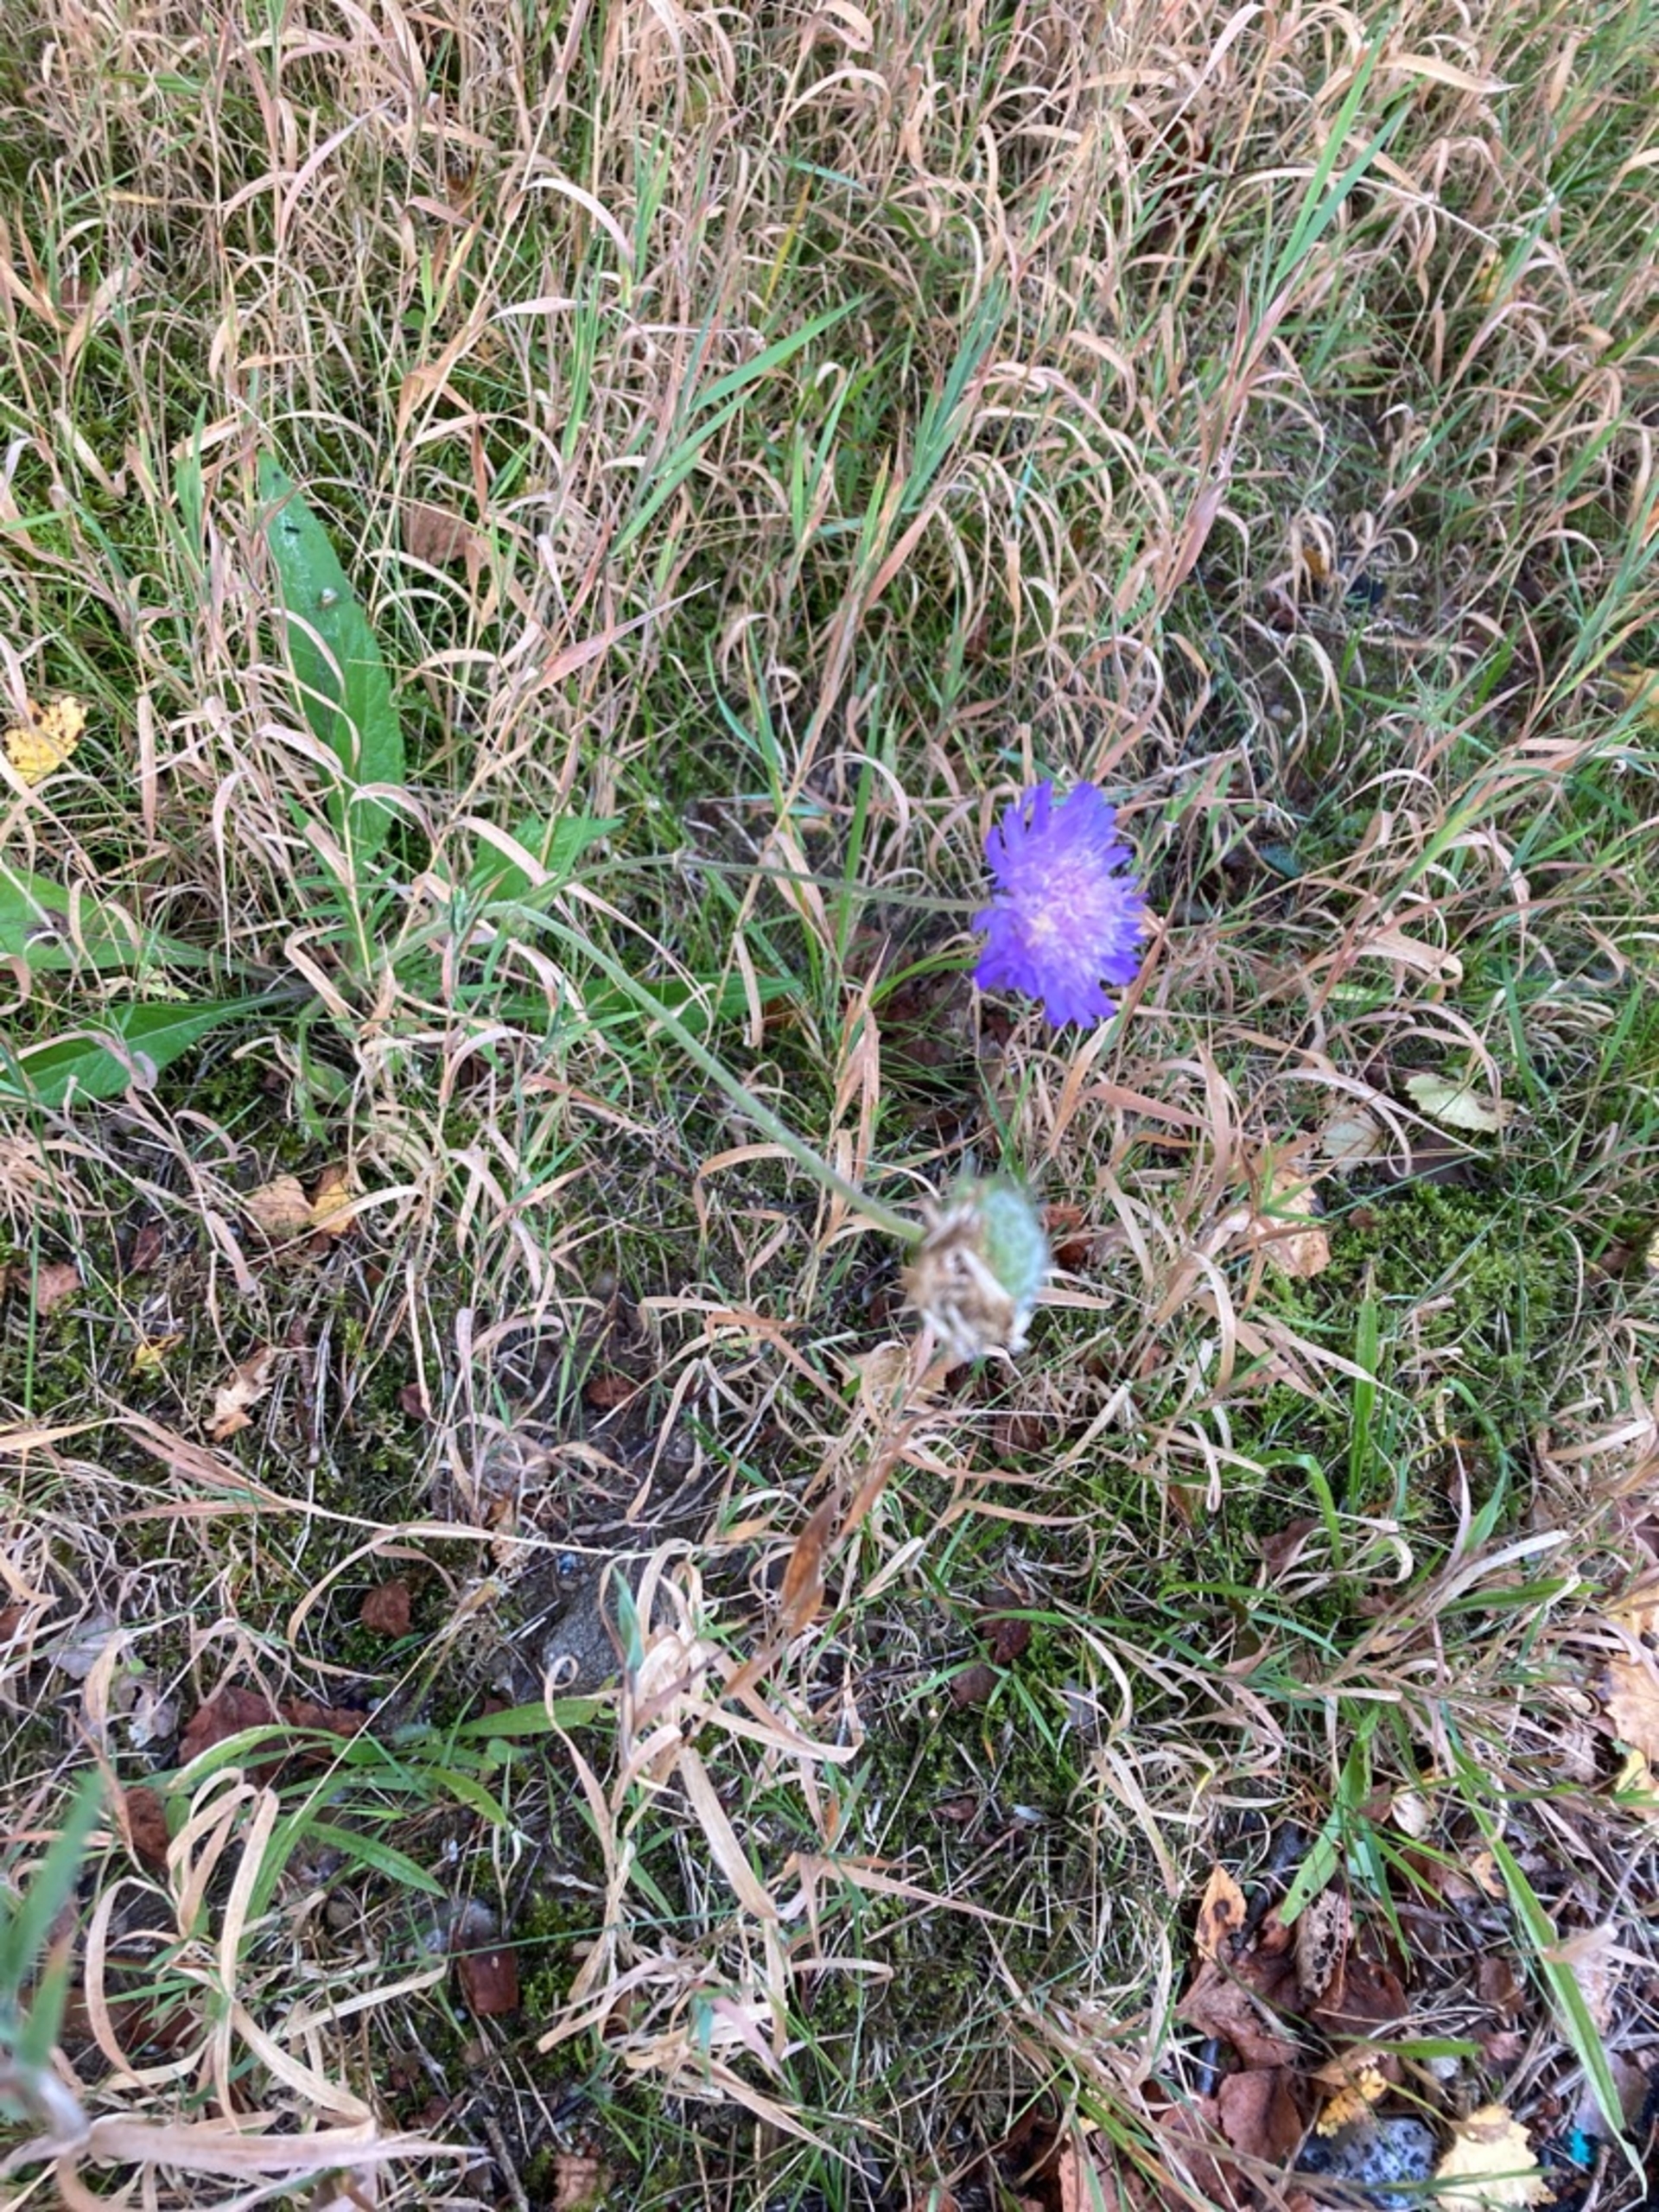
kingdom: Plantae
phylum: Tracheophyta
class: Magnoliopsida
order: Dipsacales
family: Caprifoliaceae
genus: Knautia
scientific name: Knautia arvensis
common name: Blåhat
